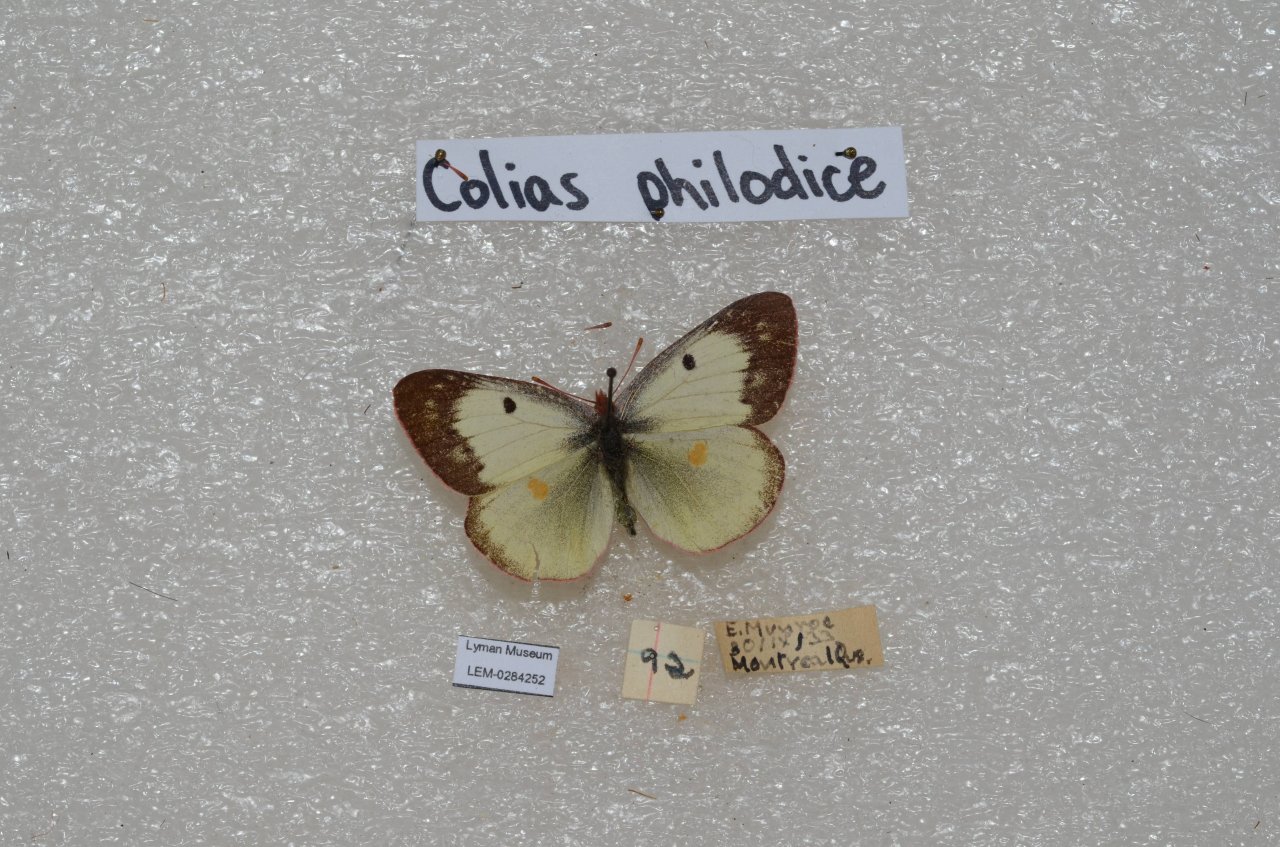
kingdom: Animalia
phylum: Arthropoda
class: Insecta
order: Lepidoptera
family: Pieridae
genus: Colias
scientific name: Colias philodice
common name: Clouded Sulphur
